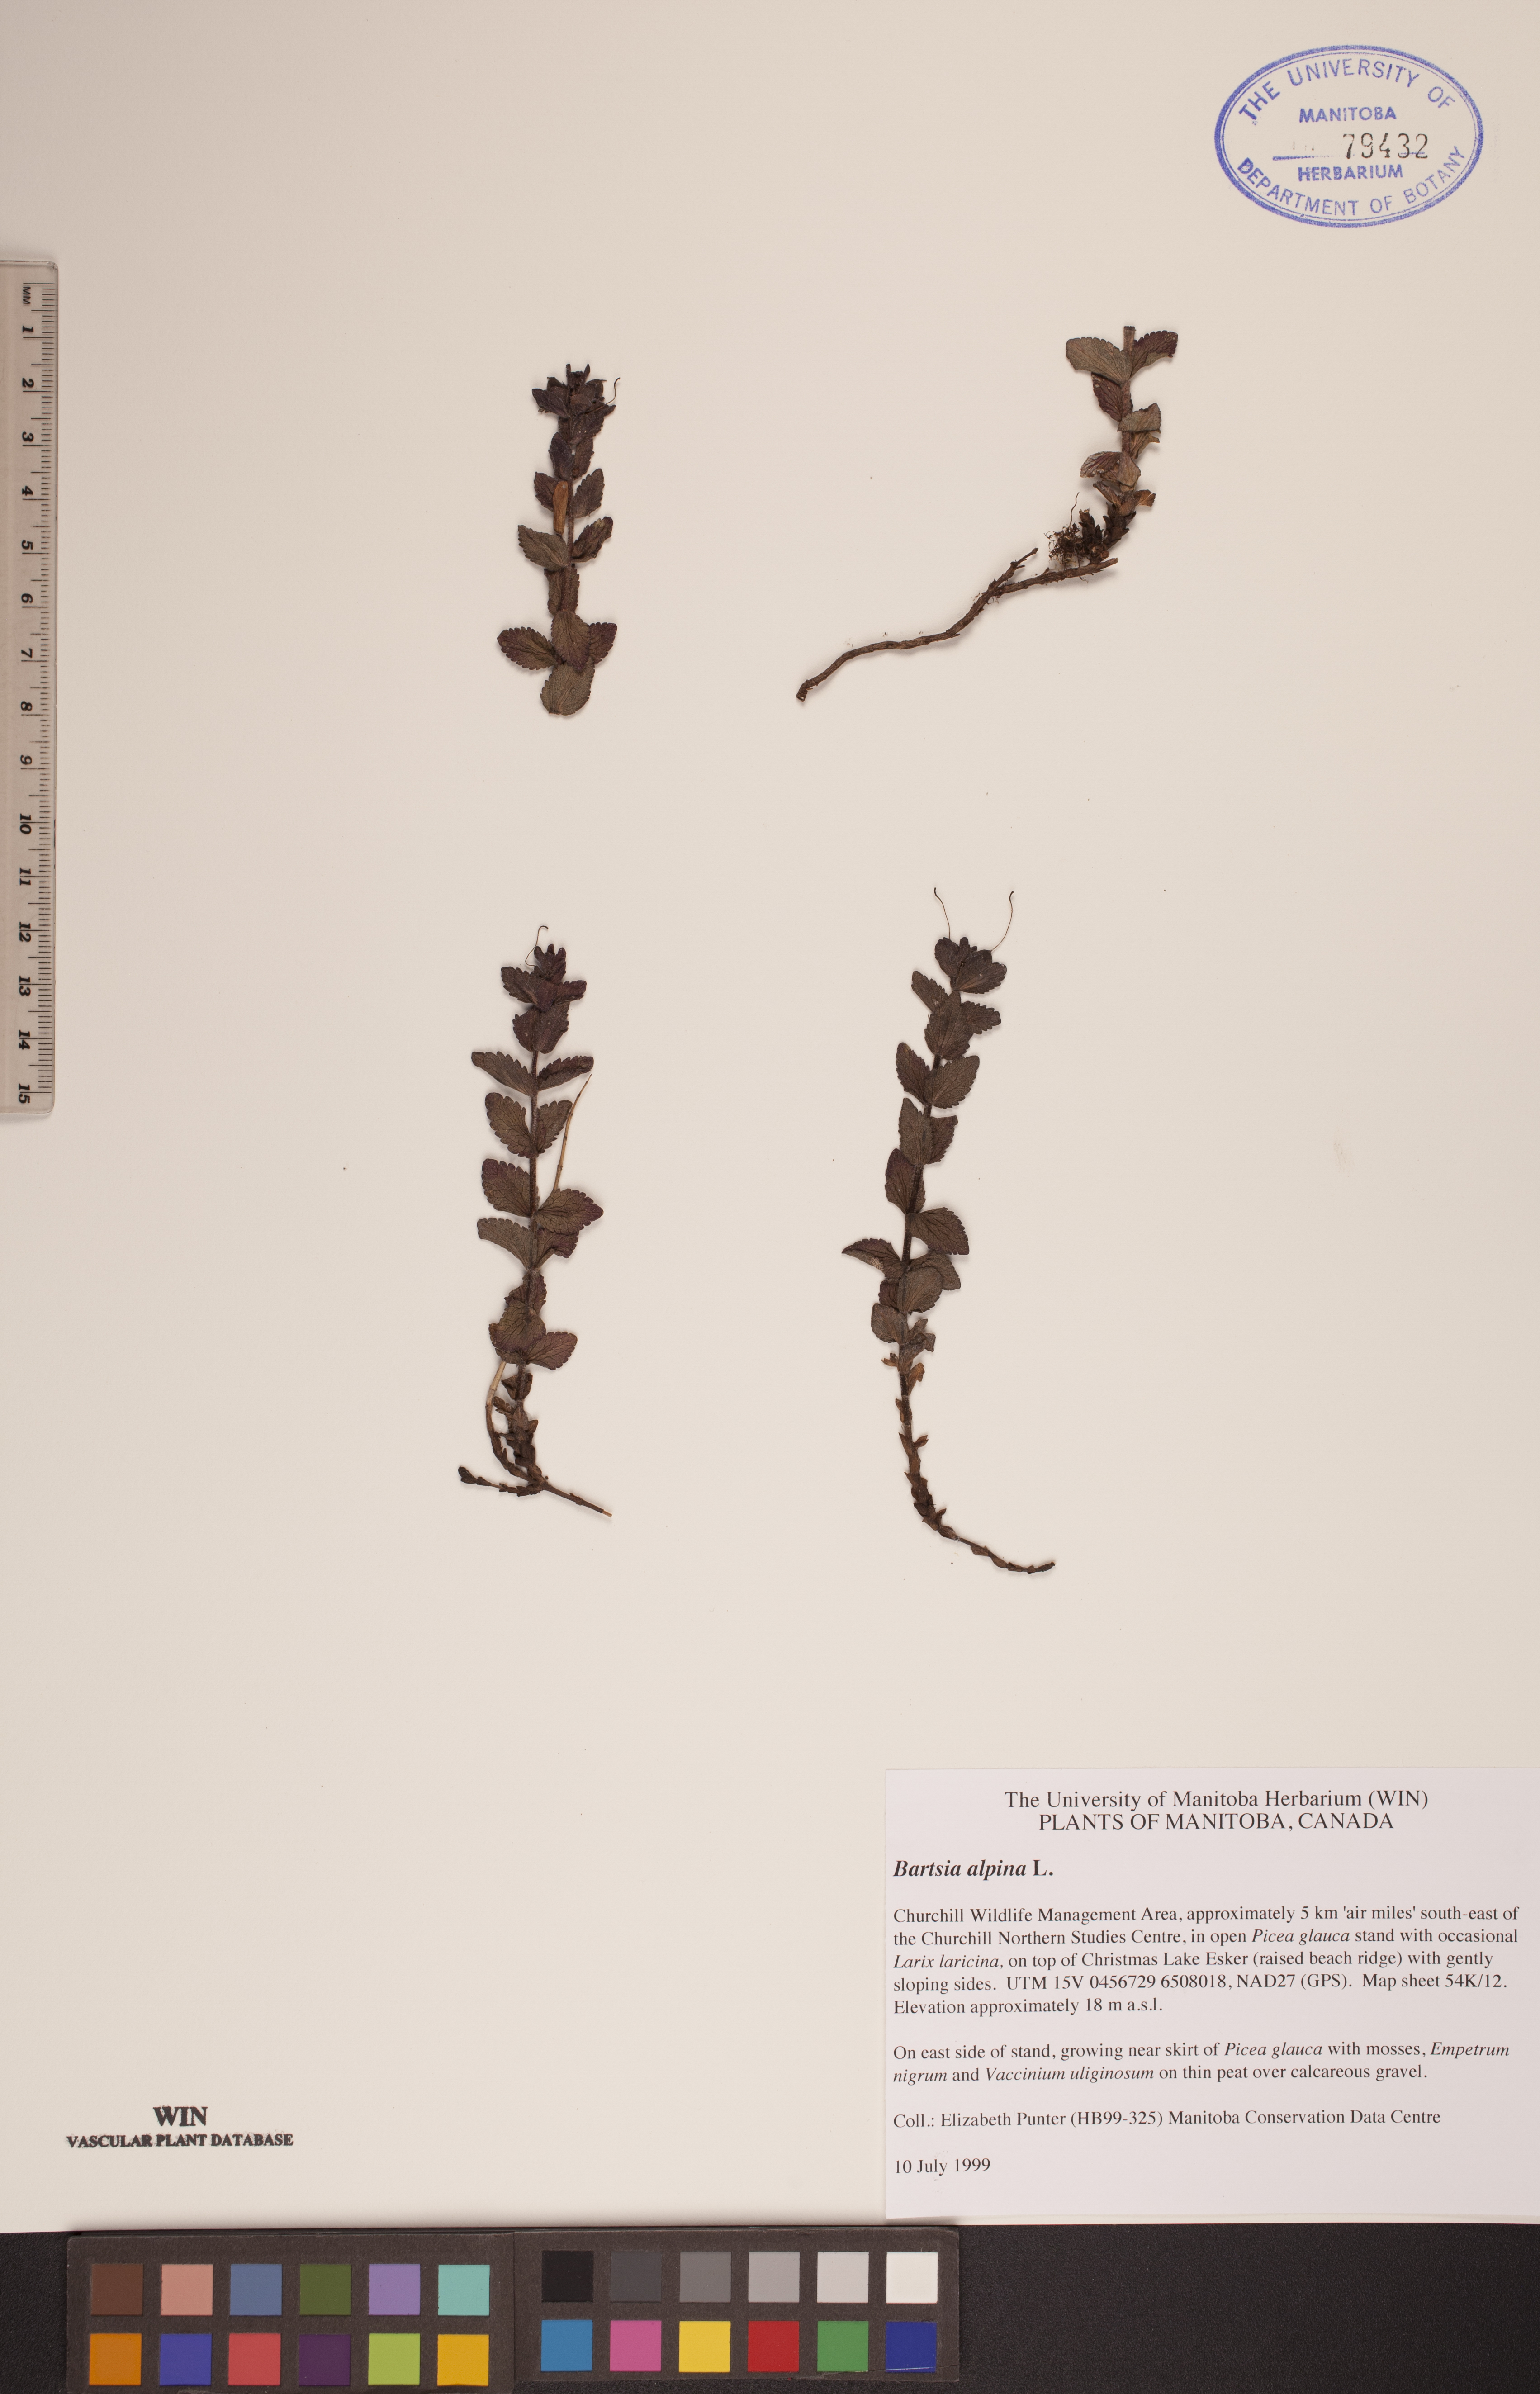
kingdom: Plantae
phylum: Tracheophyta
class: Magnoliopsida
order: Lamiales
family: Orobanchaceae
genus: Bartsia
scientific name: Bartsia alpina
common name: Alpine bartsia
